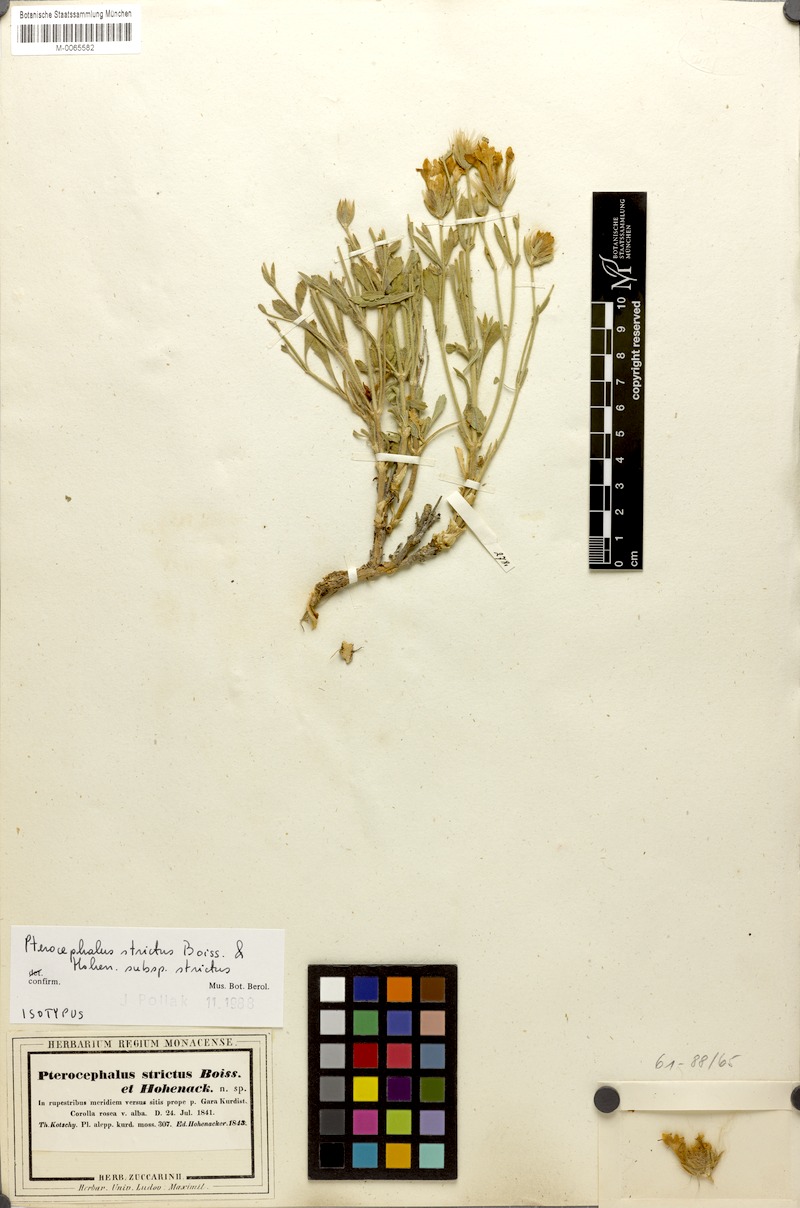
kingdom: Plantae
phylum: Tracheophyta
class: Magnoliopsida
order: Dipsacales
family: Caprifoliaceae
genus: Pterocephalus
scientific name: Pterocephalus strictus
